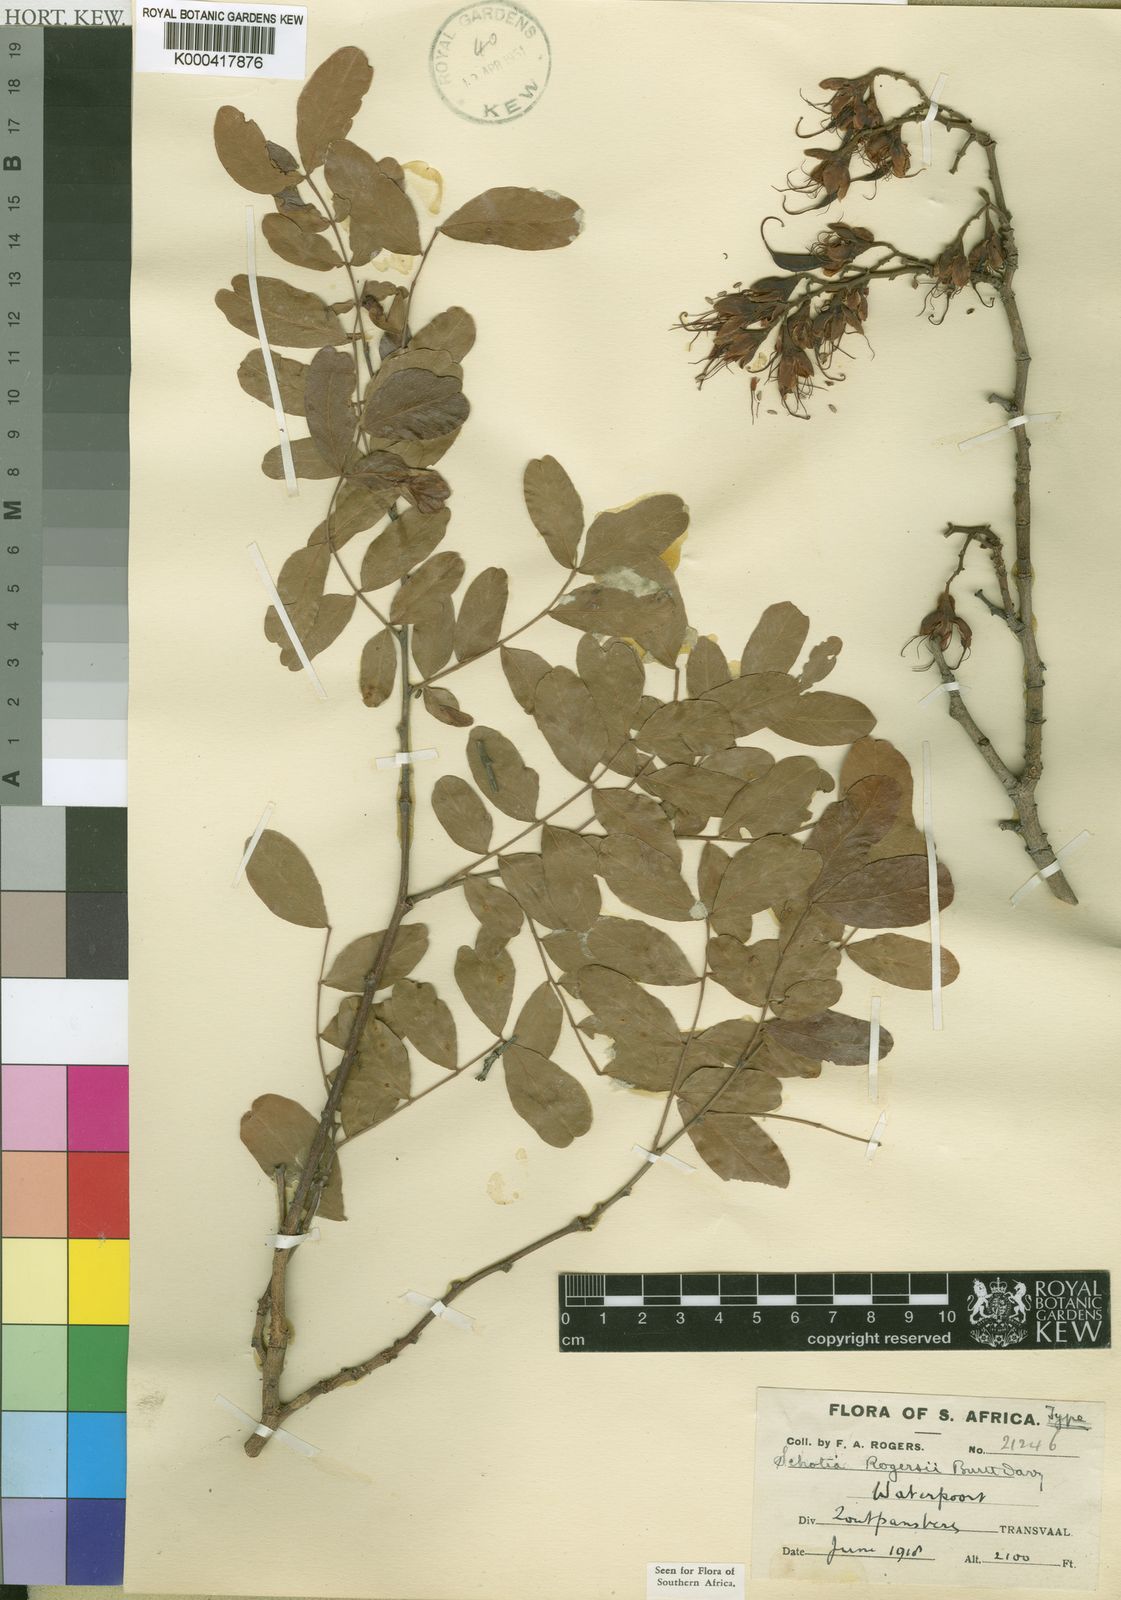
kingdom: Plantae
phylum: Tracheophyta
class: Magnoliopsida
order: Fabales
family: Fabaceae
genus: Schotia
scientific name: Schotia brachypetala
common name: Weeping boer-bean
